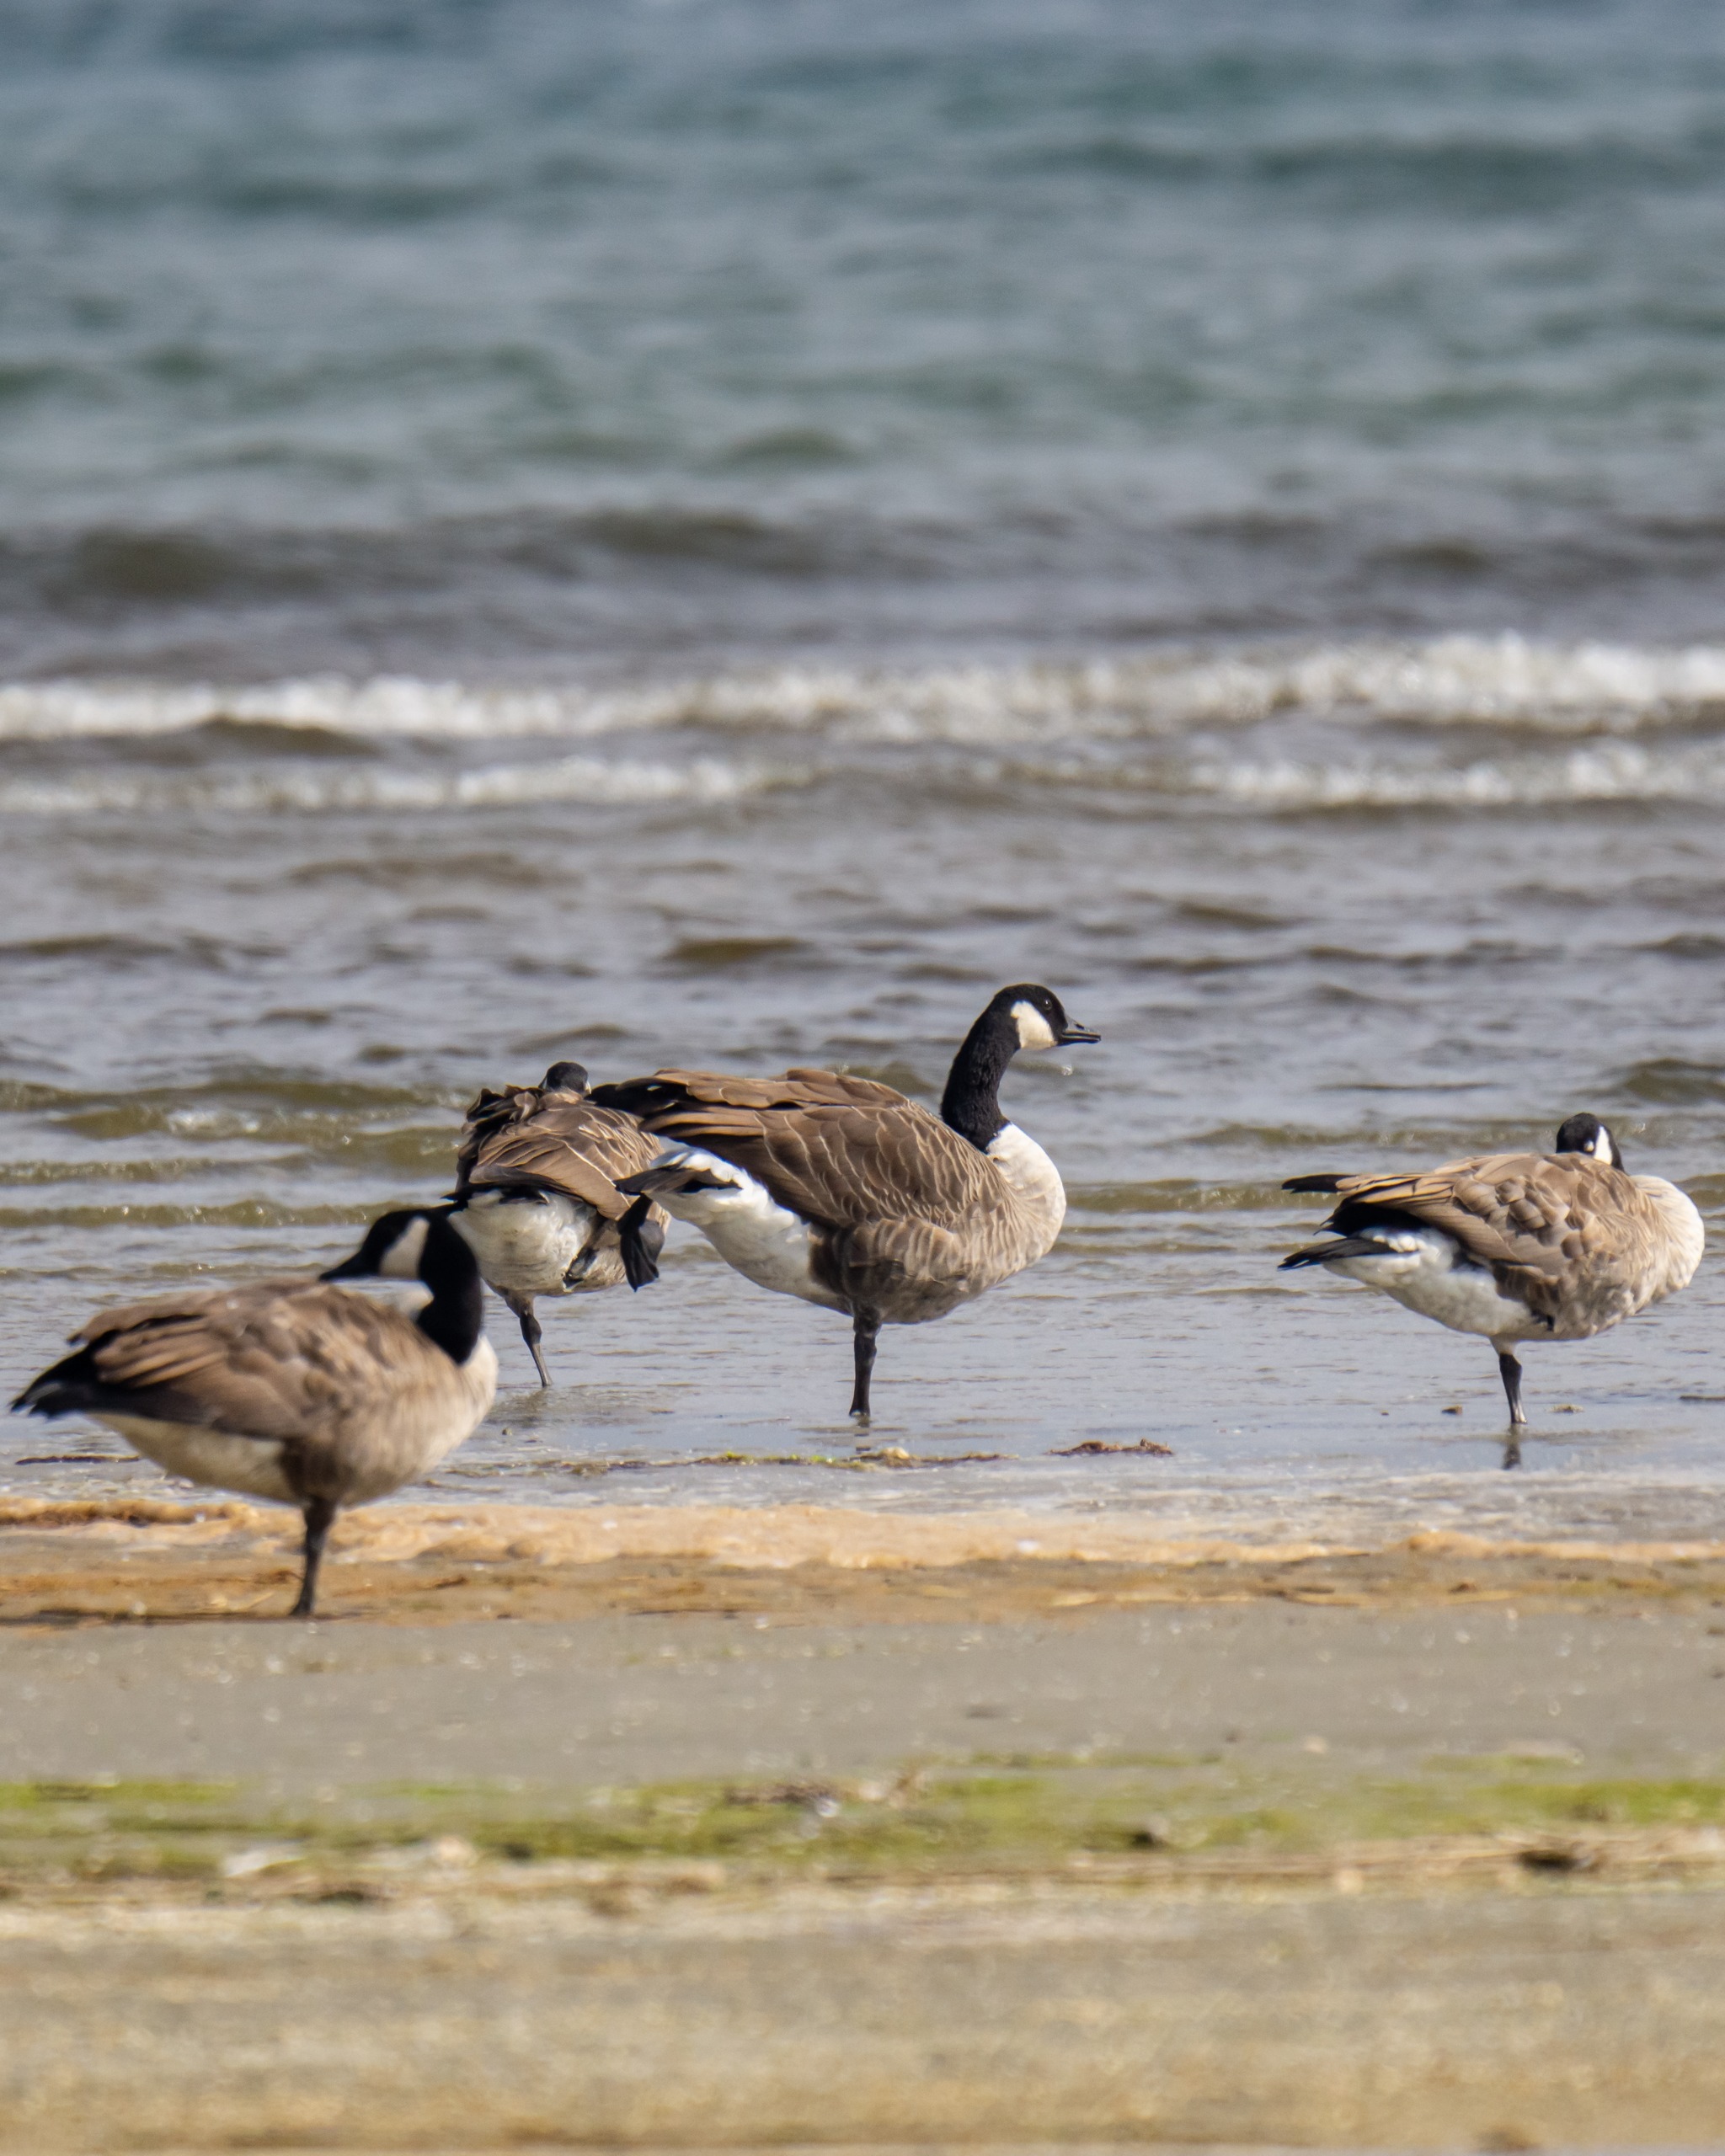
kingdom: Animalia
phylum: Chordata
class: Aves
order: Anseriformes
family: Anatidae
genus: Branta
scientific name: Branta canadensis
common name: Canadagås
